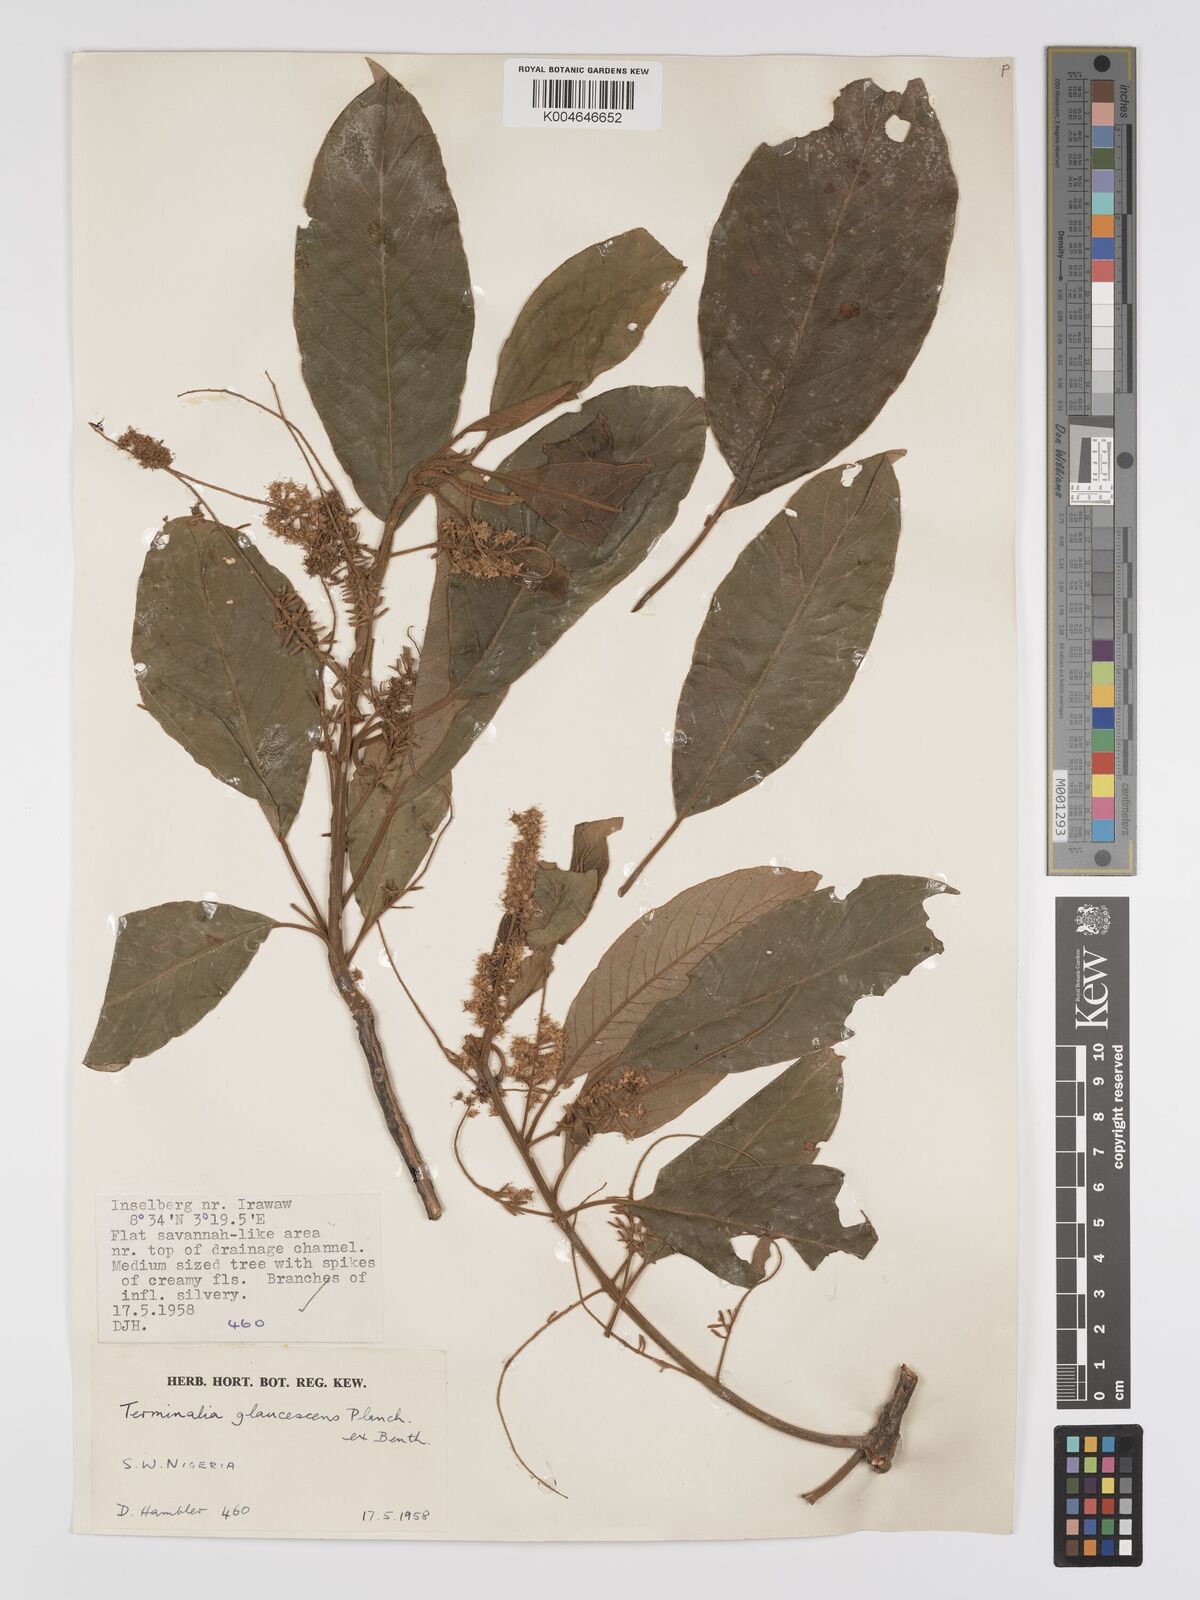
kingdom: Plantae
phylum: Tracheophyta
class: Magnoliopsida
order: Myrtales
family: Combretaceae
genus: Terminalia
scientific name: Terminalia schimperiana
